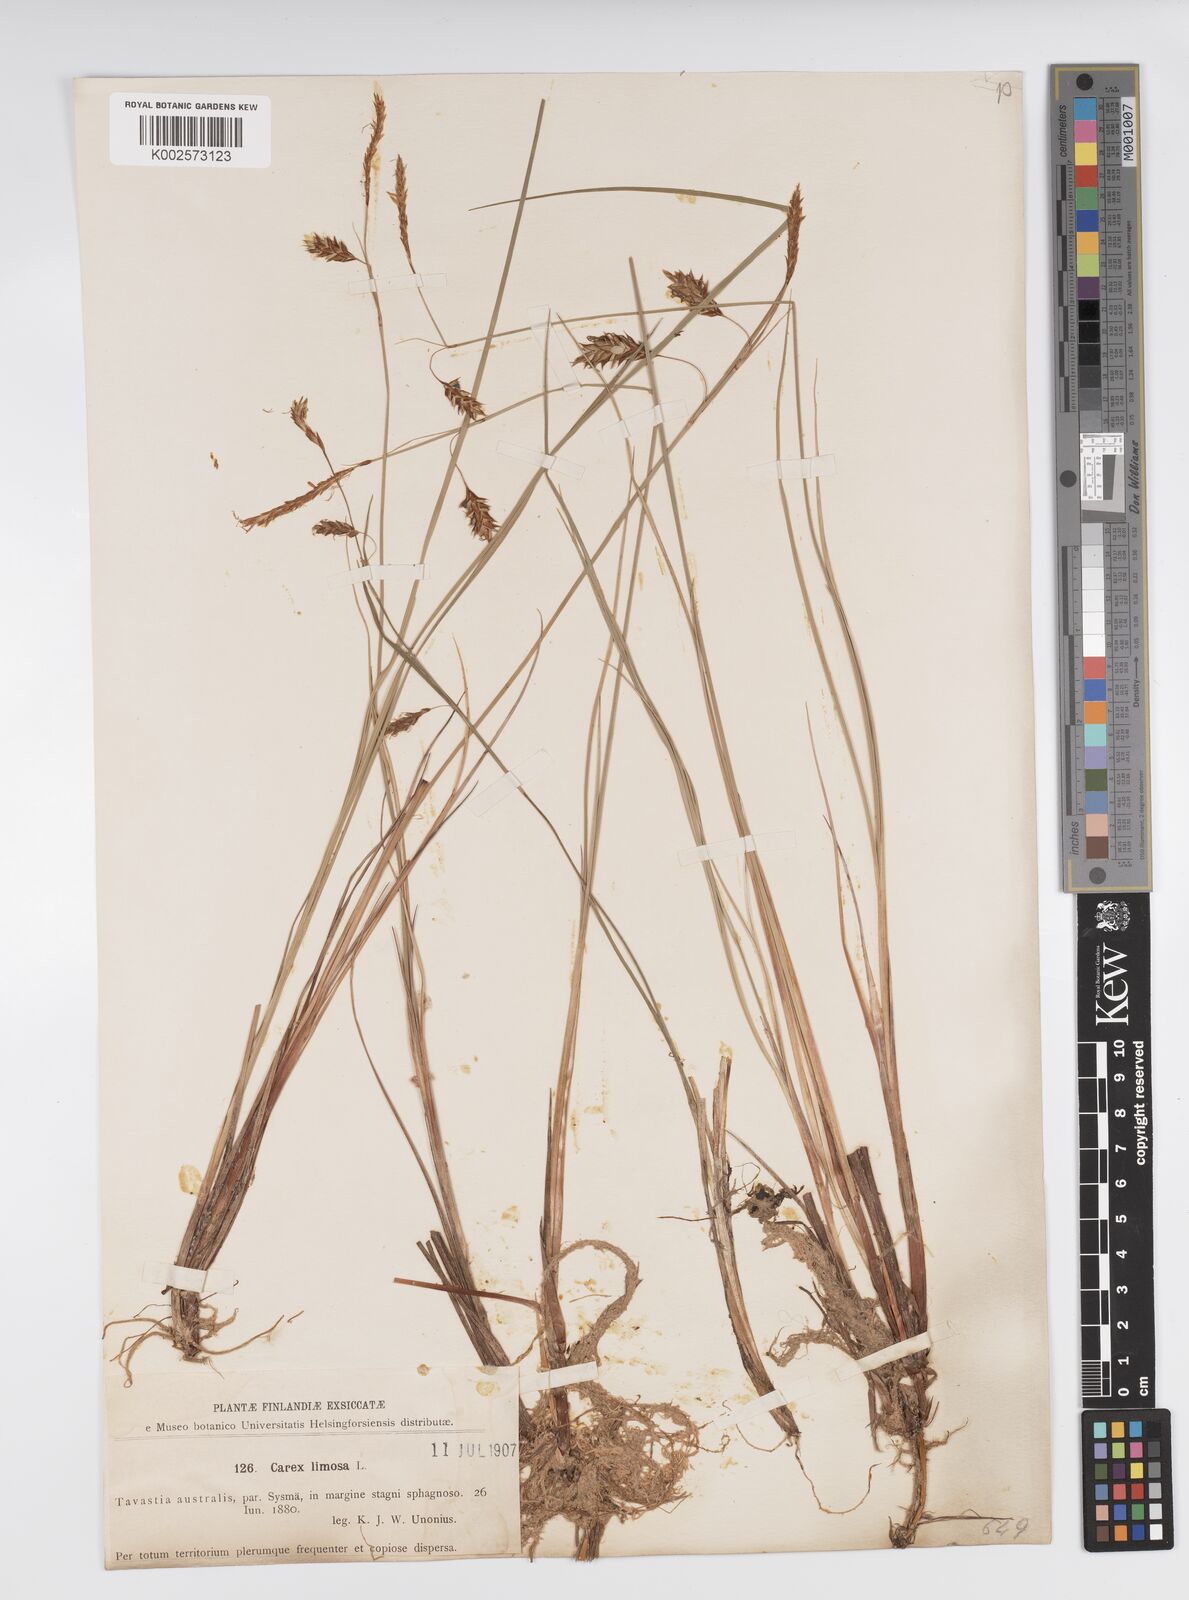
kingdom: Plantae
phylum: Tracheophyta
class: Liliopsida
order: Poales
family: Cyperaceae
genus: Carex
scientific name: Carex limosa
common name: Bog sedge
